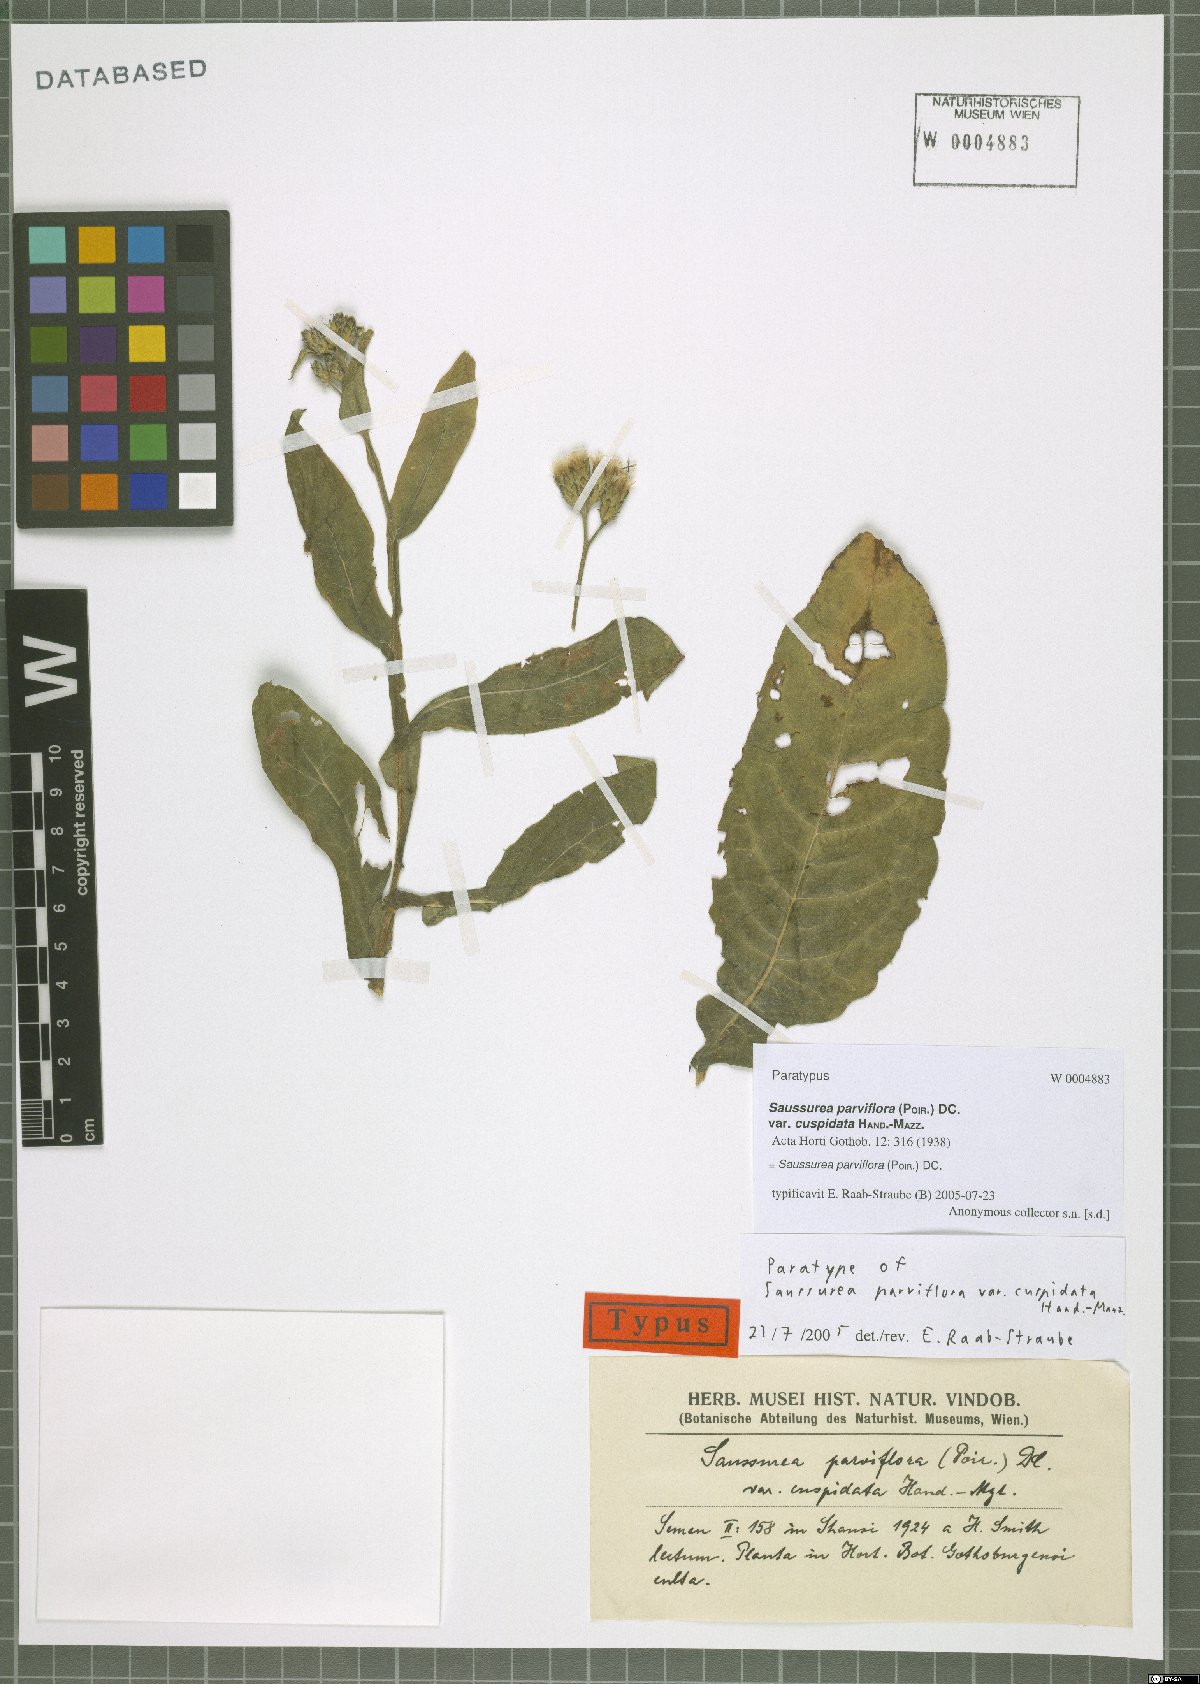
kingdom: Plantae
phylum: Tracheophyta
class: Magnoliopsida
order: Asterales
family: Asteraceae
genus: Saussurea
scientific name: Saussurea parviflora
